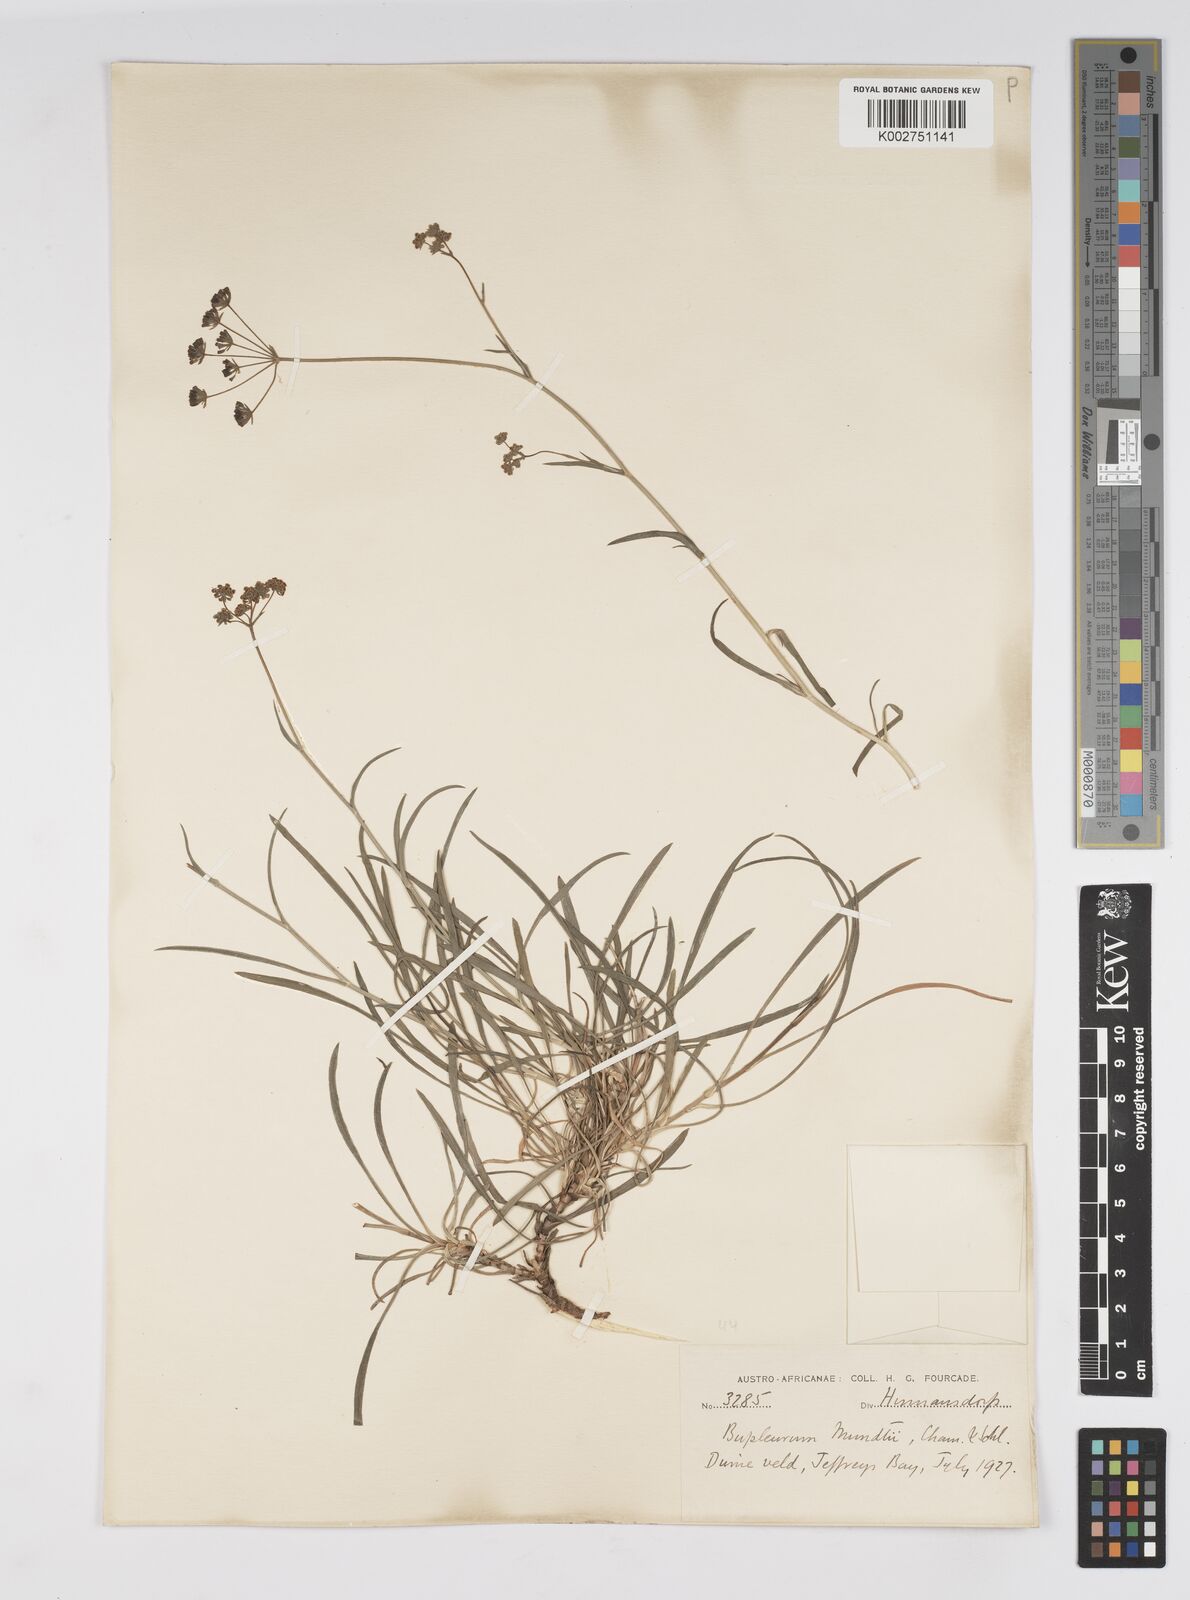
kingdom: Plantae
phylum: Tracheophyta
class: Magnoliopsida
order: Apiales
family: Apiaceae
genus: Bupleurum
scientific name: Bupleurum mundii
